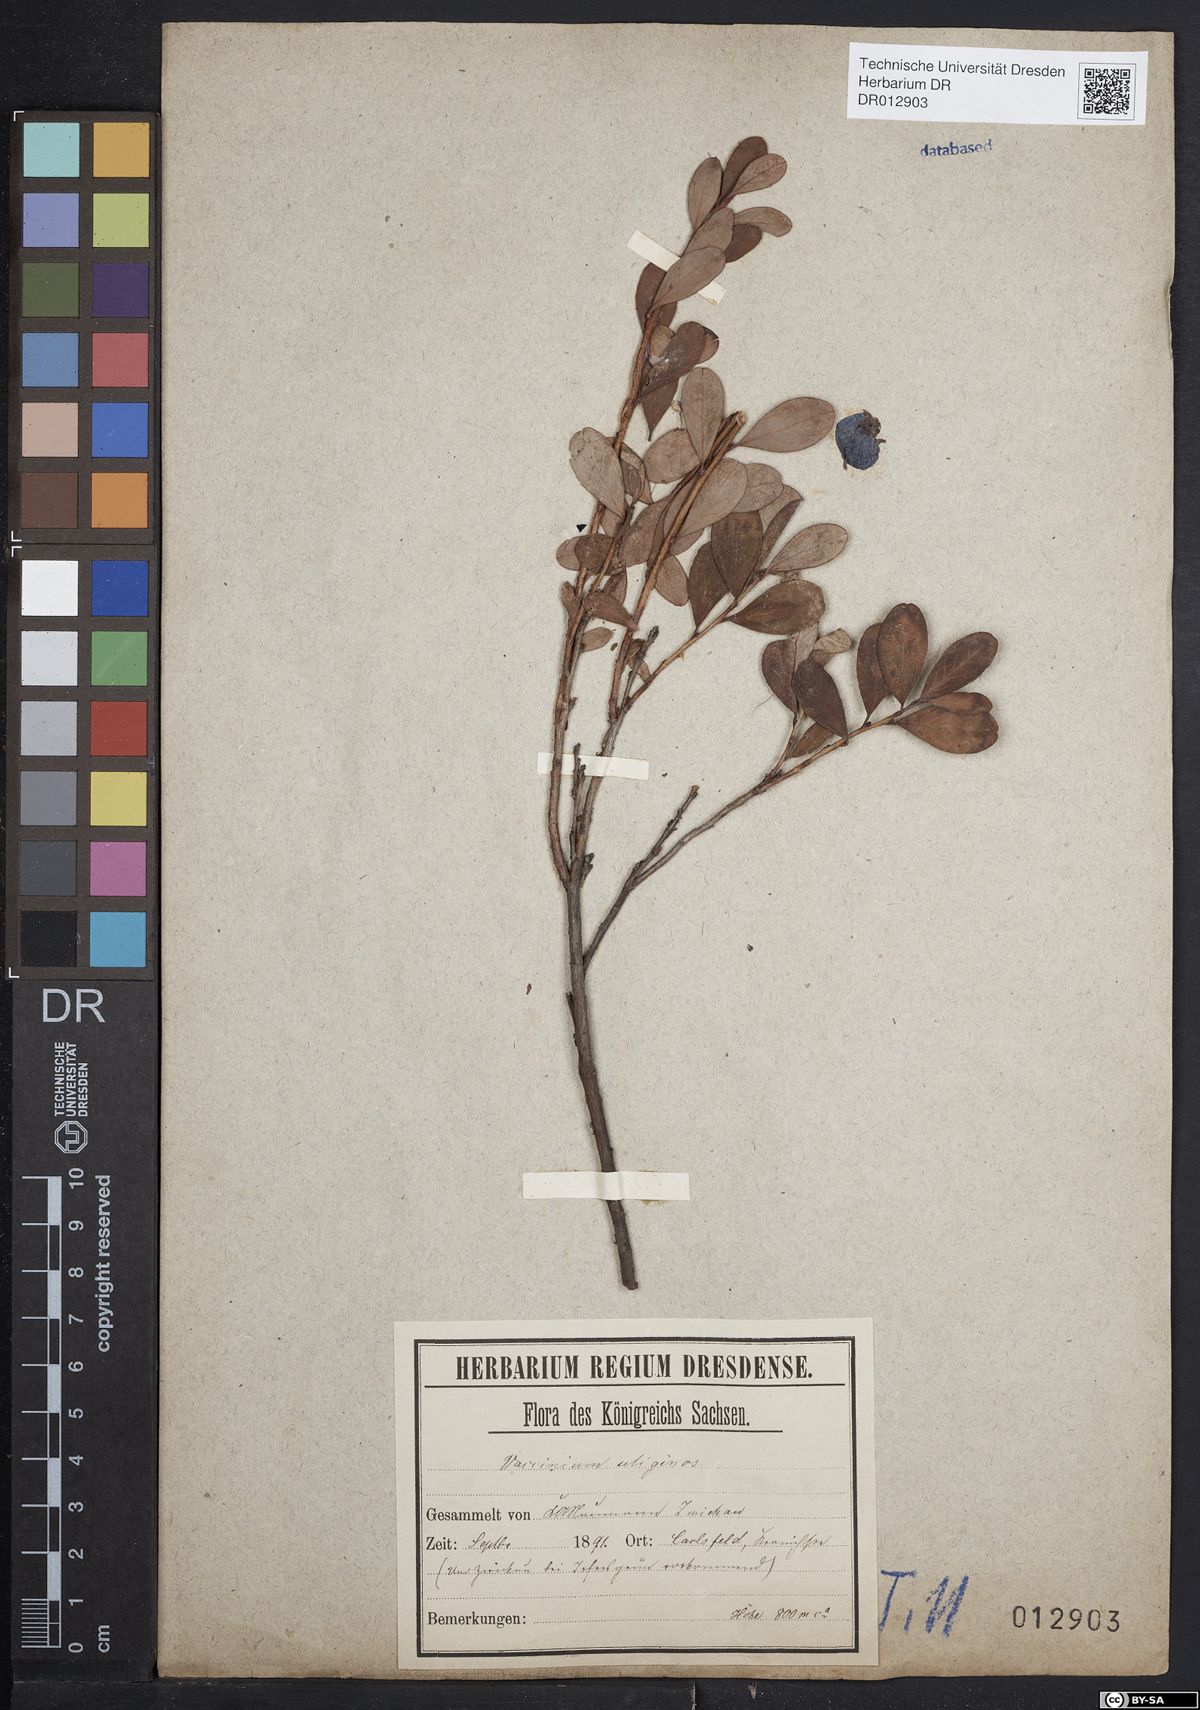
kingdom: Plantae
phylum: Tracheophyta
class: Magnoliopsida
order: Ericales
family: Ericaceae
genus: Vaccinium
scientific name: Vaccinium uliginosum
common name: Bog bilberry
